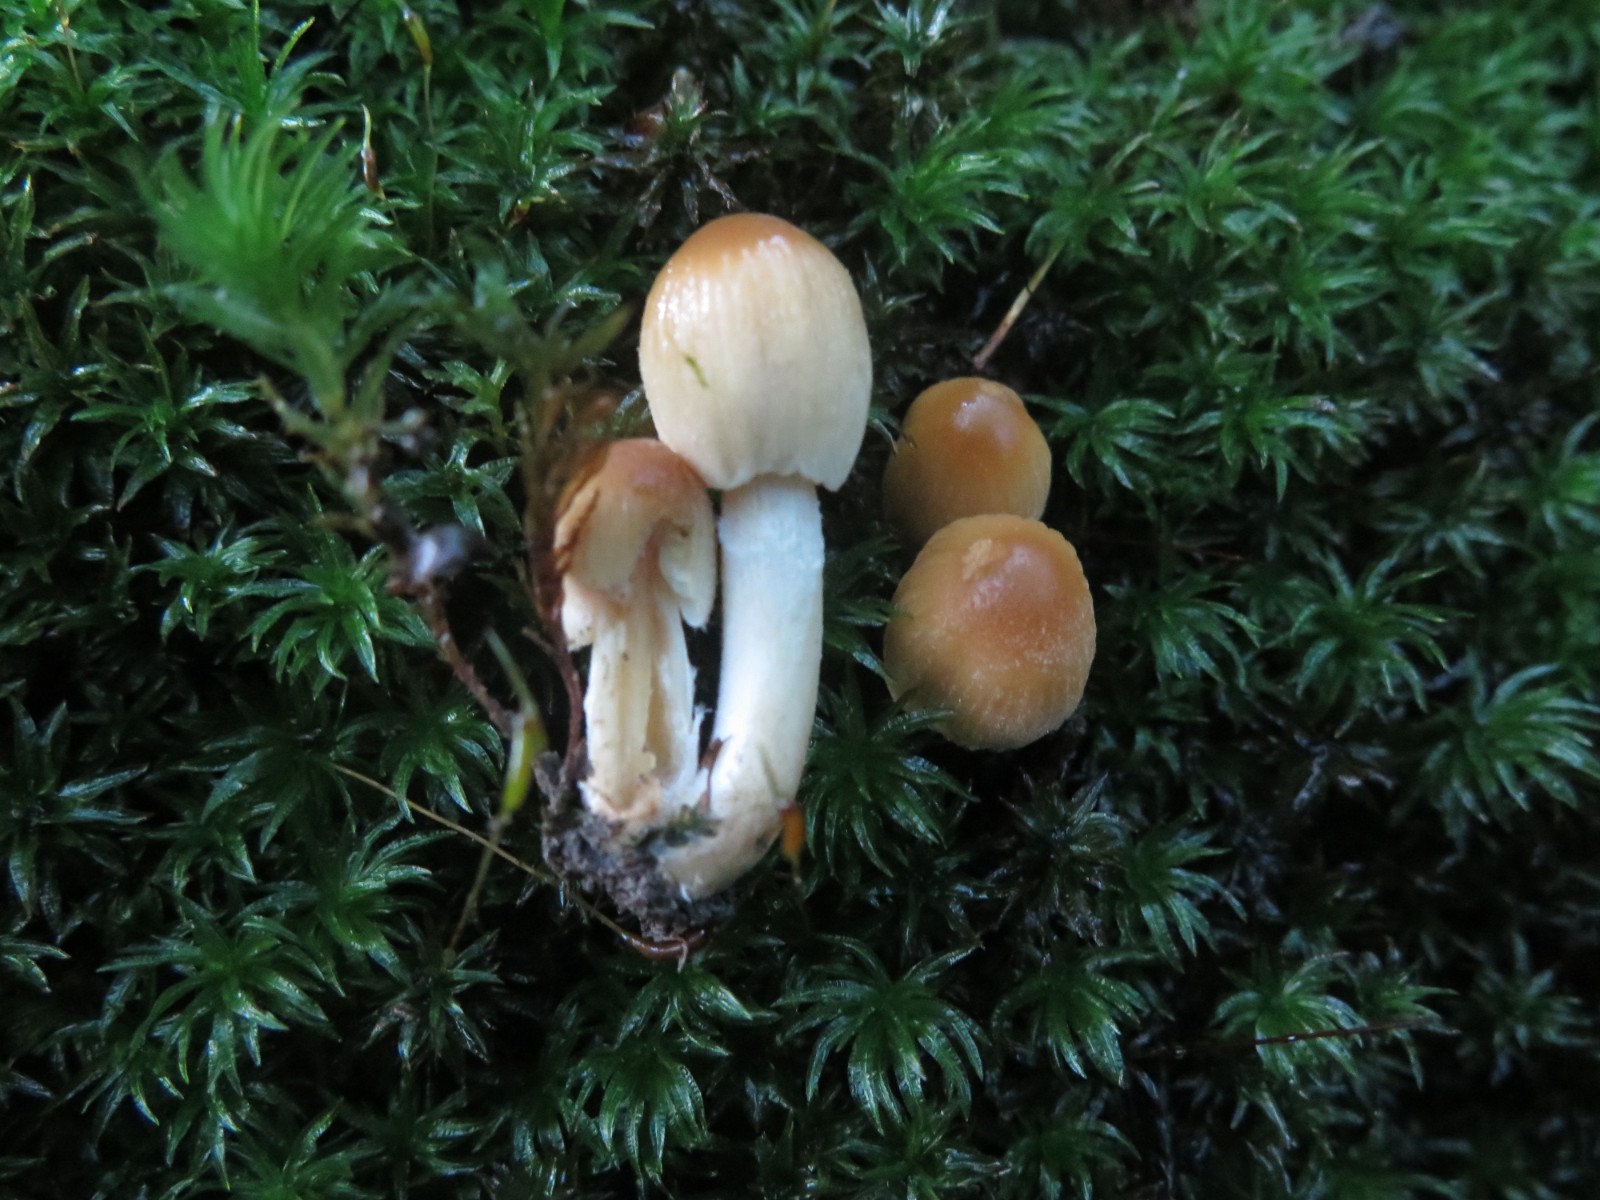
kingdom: Fungi
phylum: Basidiomycota
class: Agaricomycetes
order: Agaricales
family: Psathyrellaceae
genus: Coprinellus
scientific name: Coprinellus micaceus
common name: glimmer-blækhat
